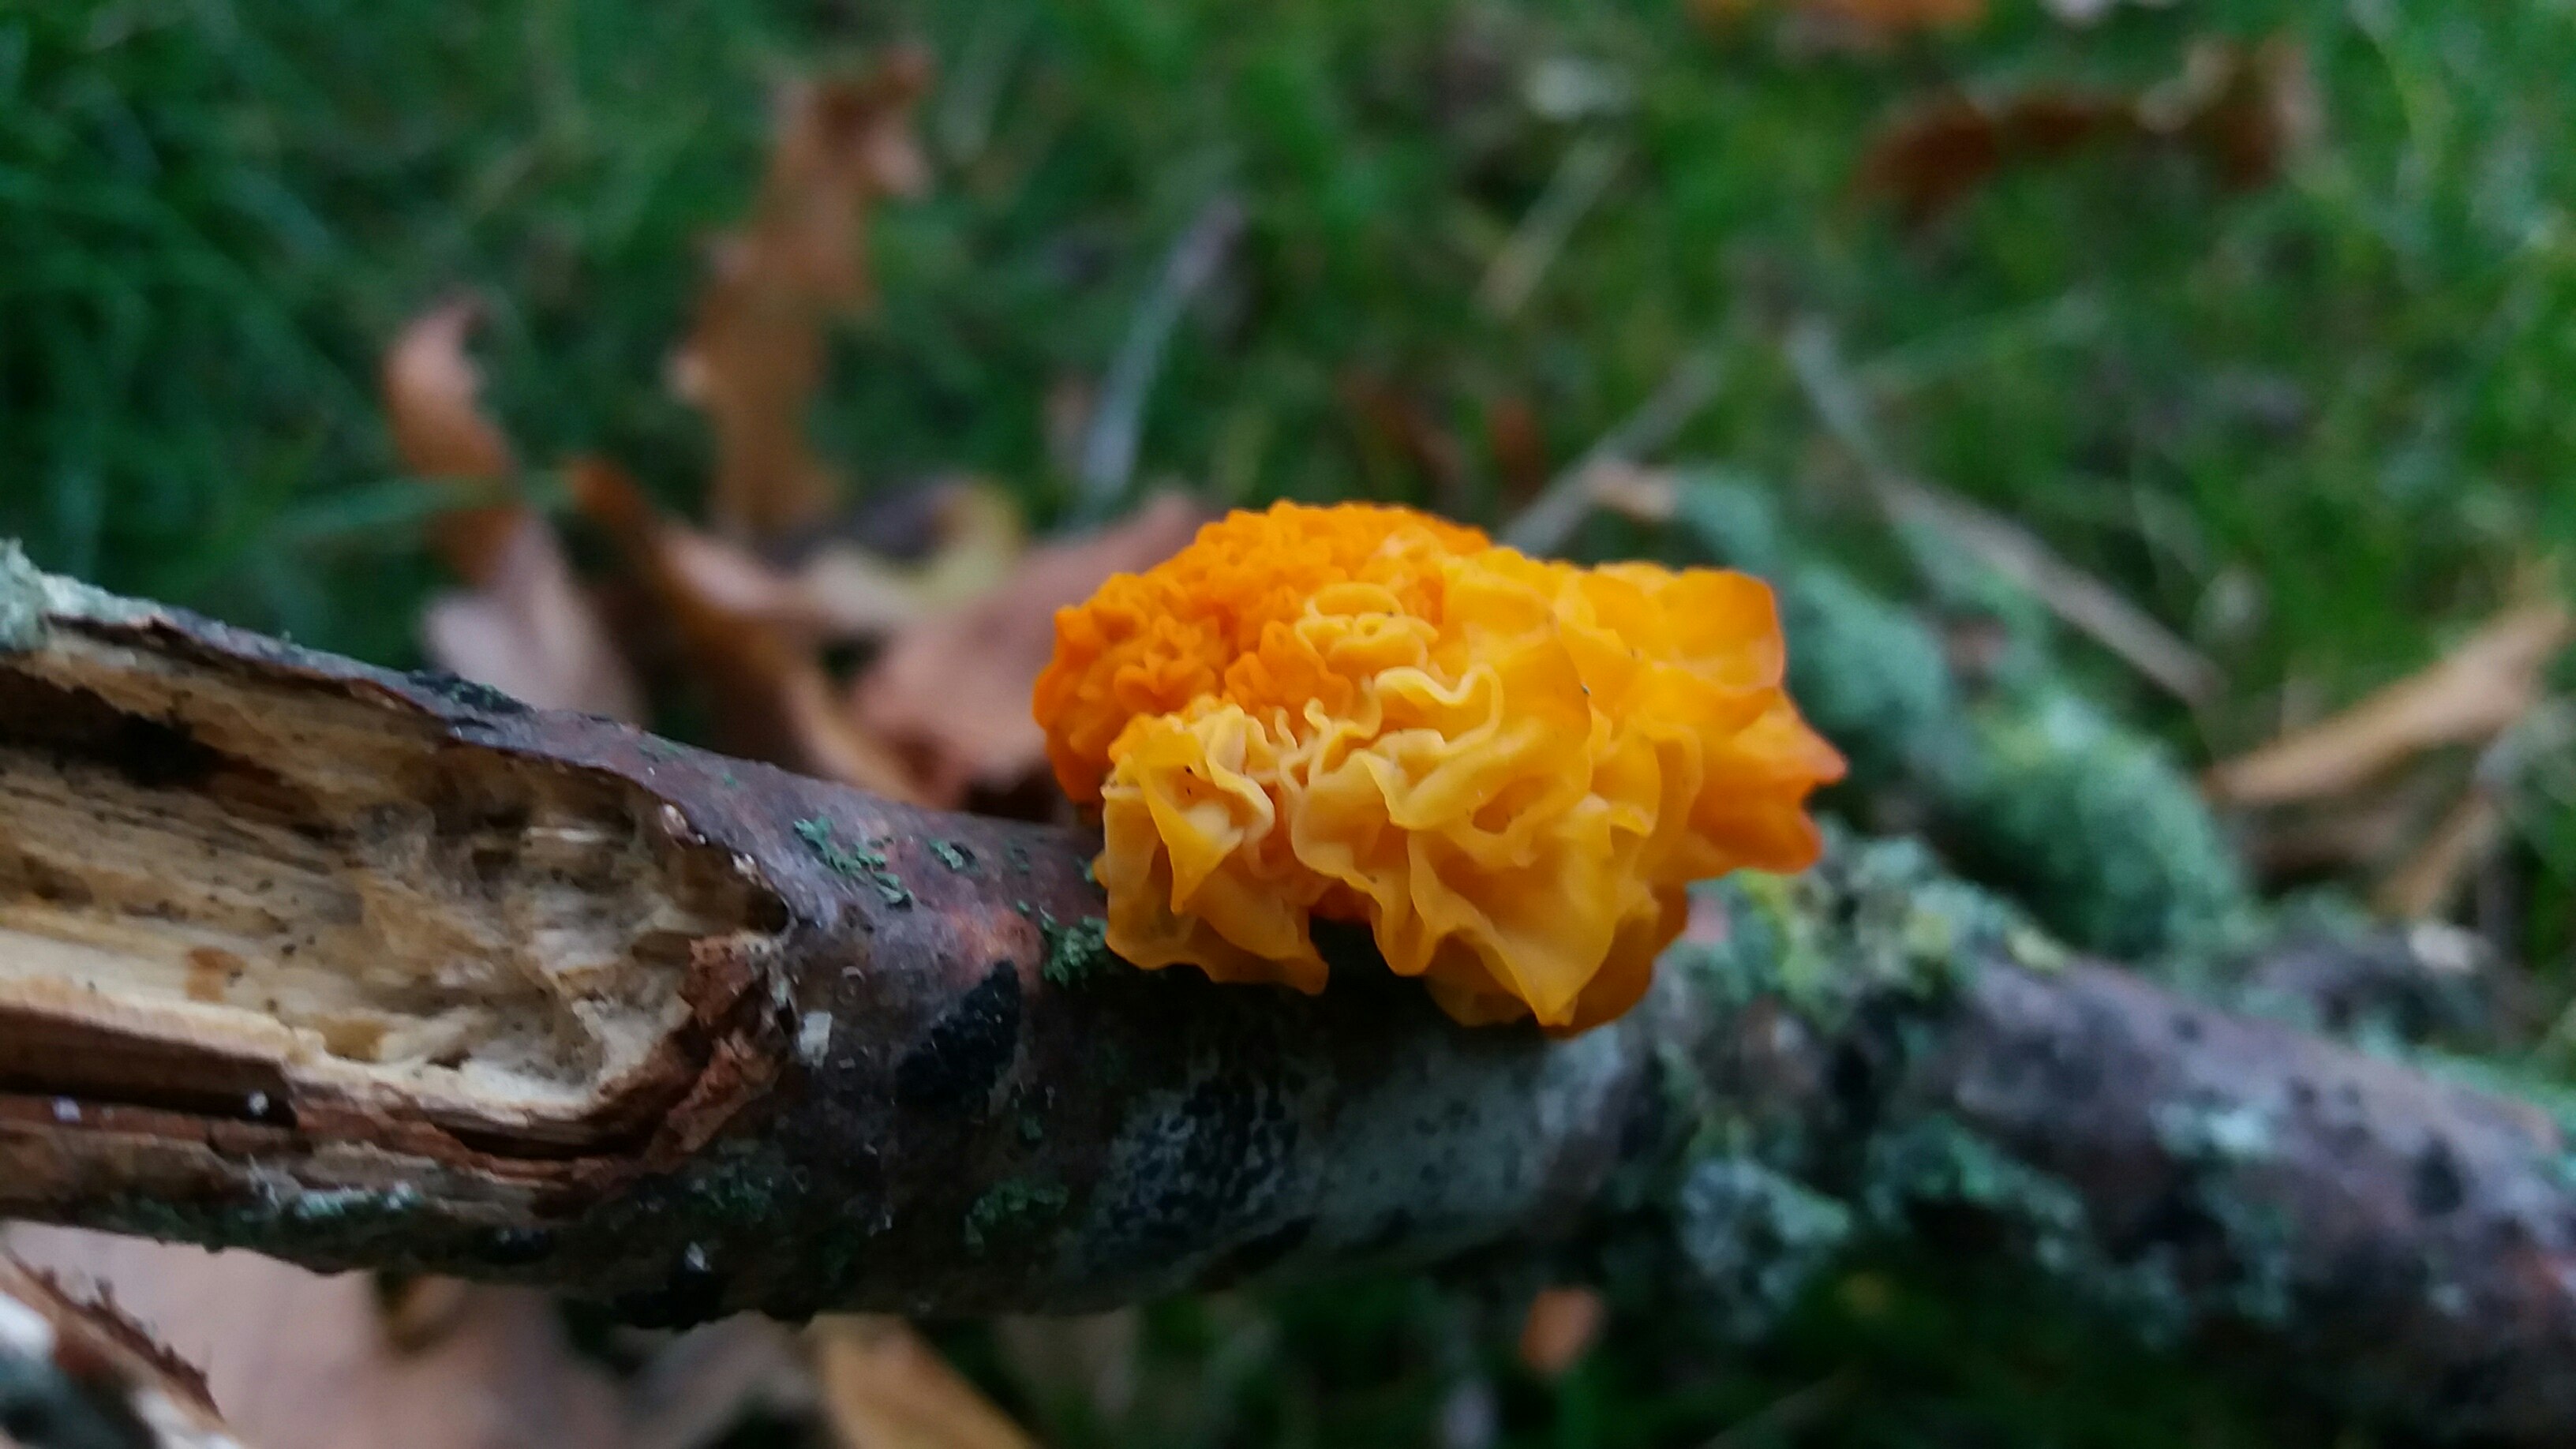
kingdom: Fungi
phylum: Basidiomycota
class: Tremellomycetes
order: Tremellales
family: Tremellaceae
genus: Tremella
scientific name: Tremella mesenterica
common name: gul bævresvamp
